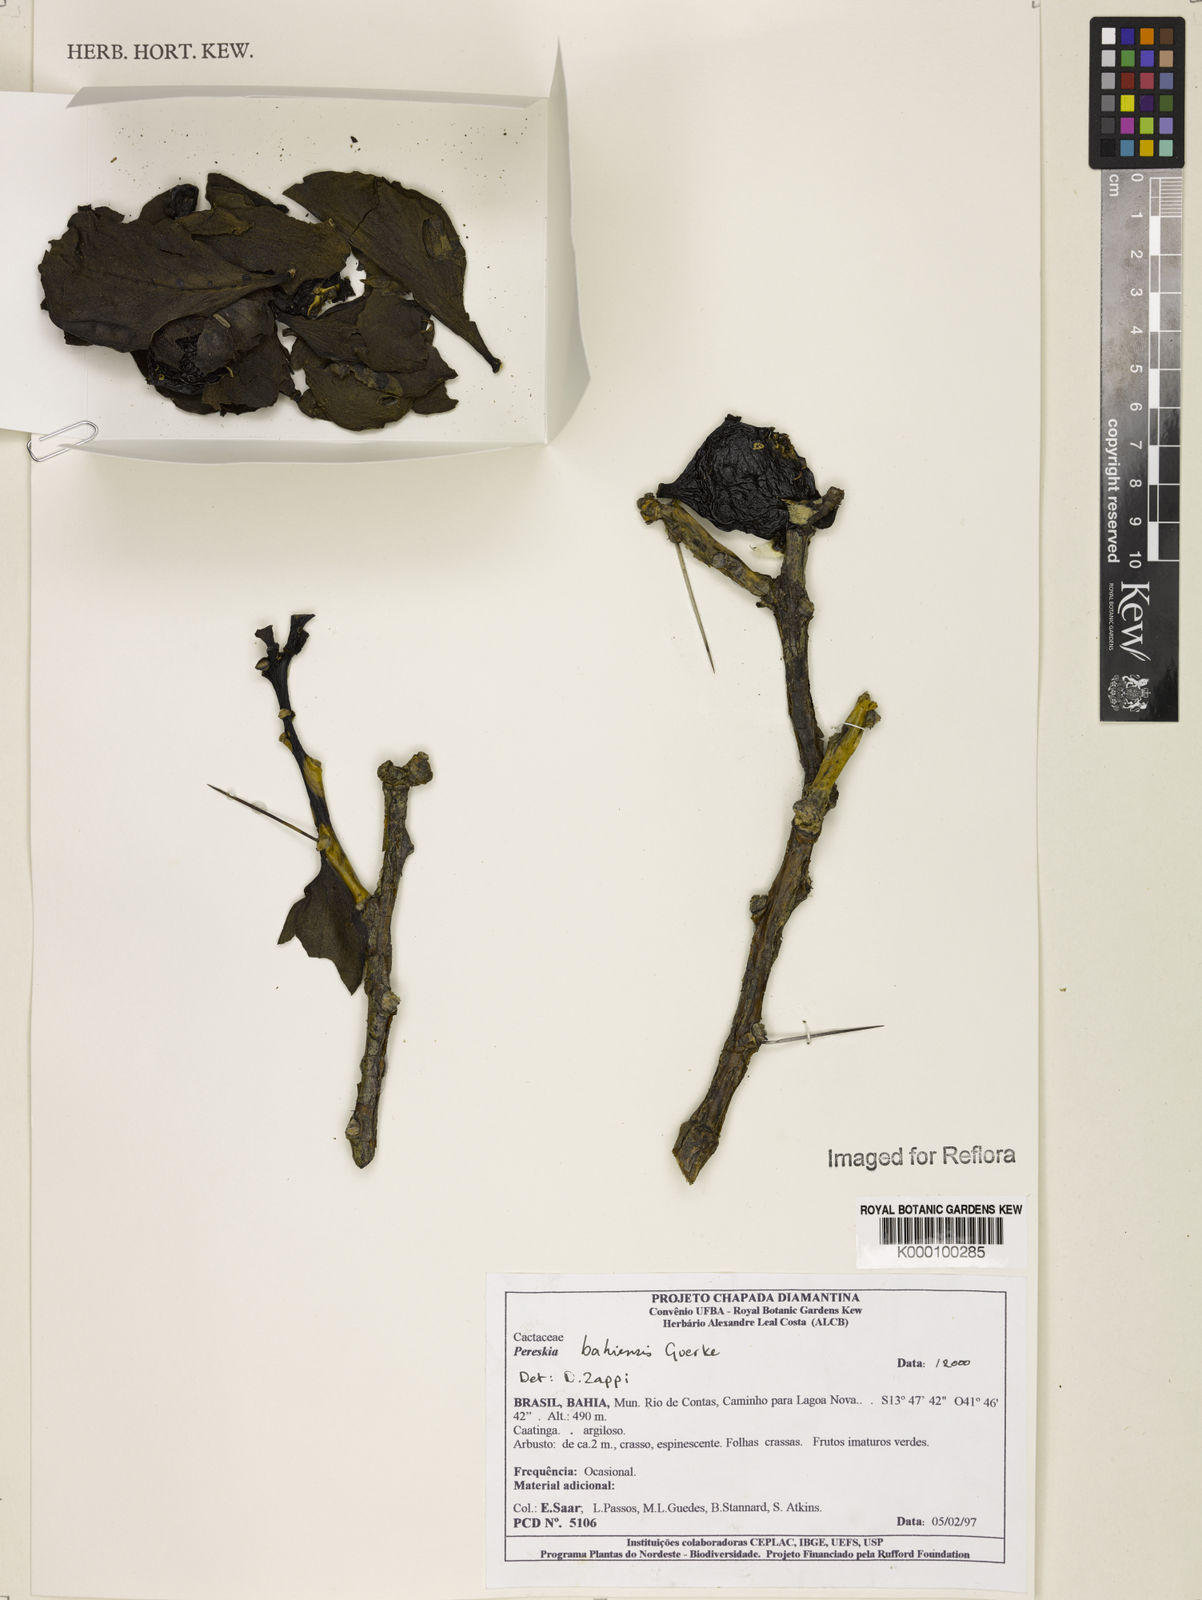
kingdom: Plantae
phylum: Tracheophyta
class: Magnoliopsida
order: Caryophyllales
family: Cactaceae
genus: Pereskia
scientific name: Pereskia
